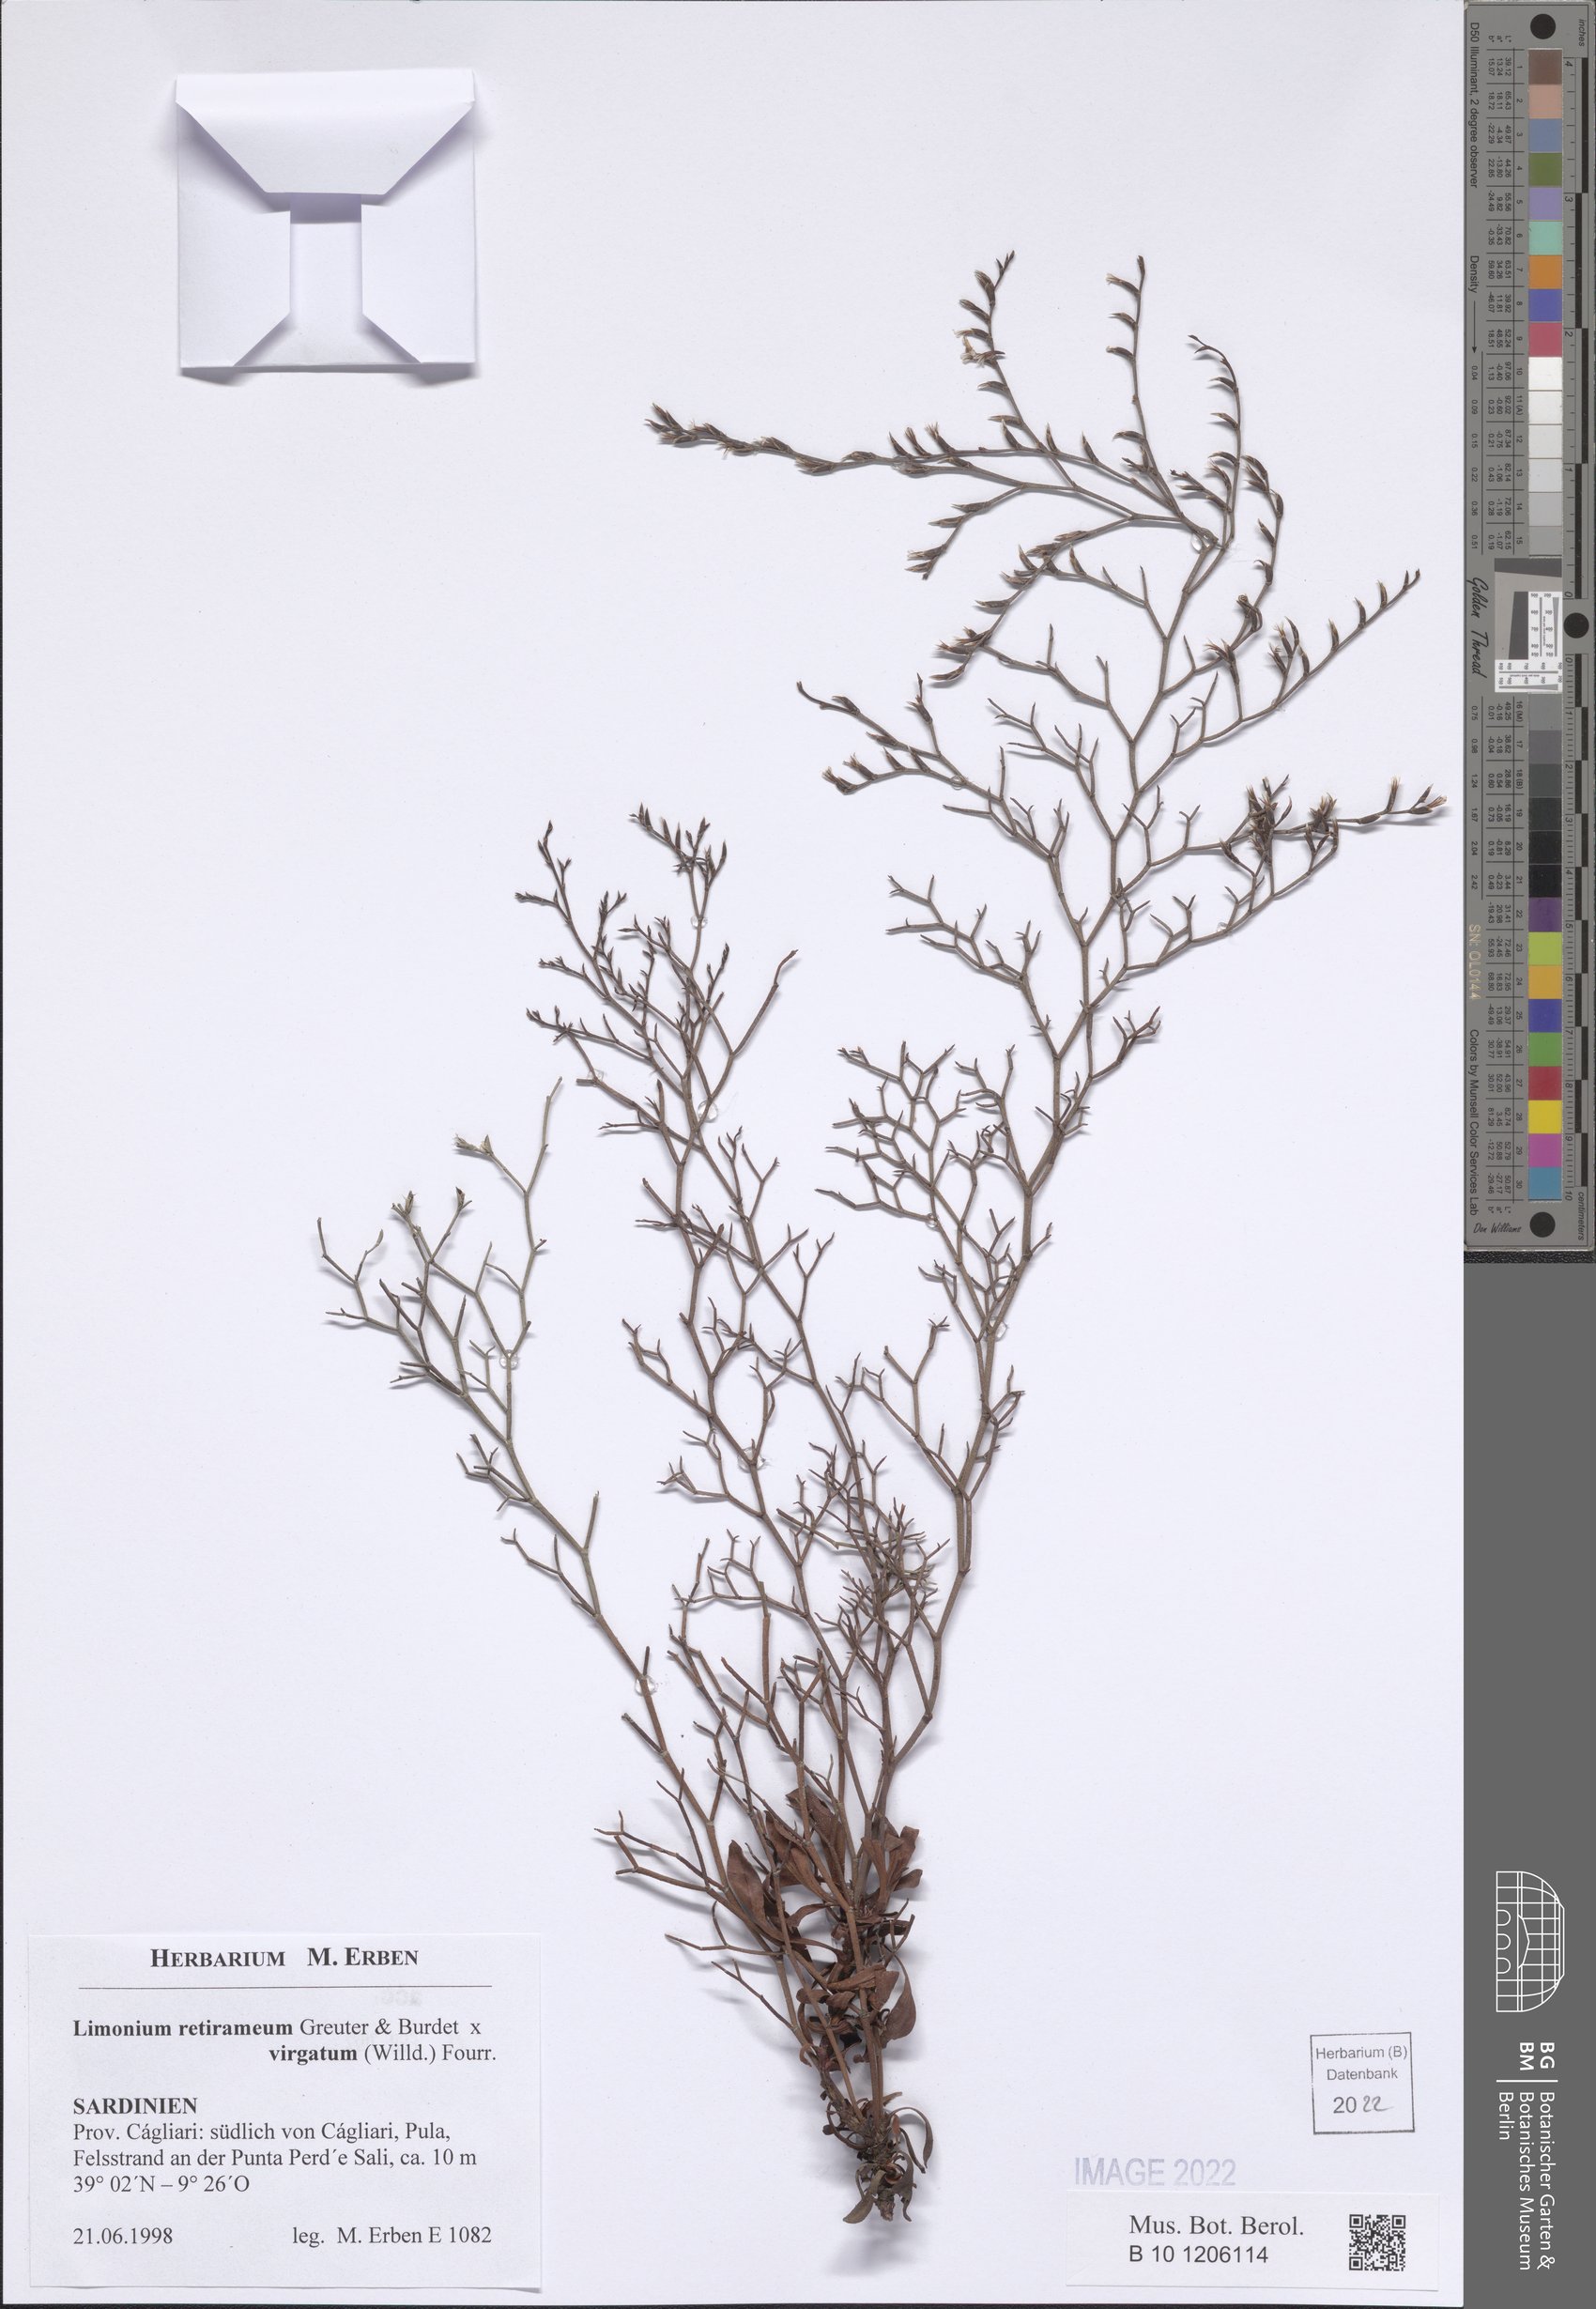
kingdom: Plantae
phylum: Tracheophyta
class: Magnoliopsida
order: Caryophyllales
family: Plumbaginaceae
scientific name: Plumbaginaceae
